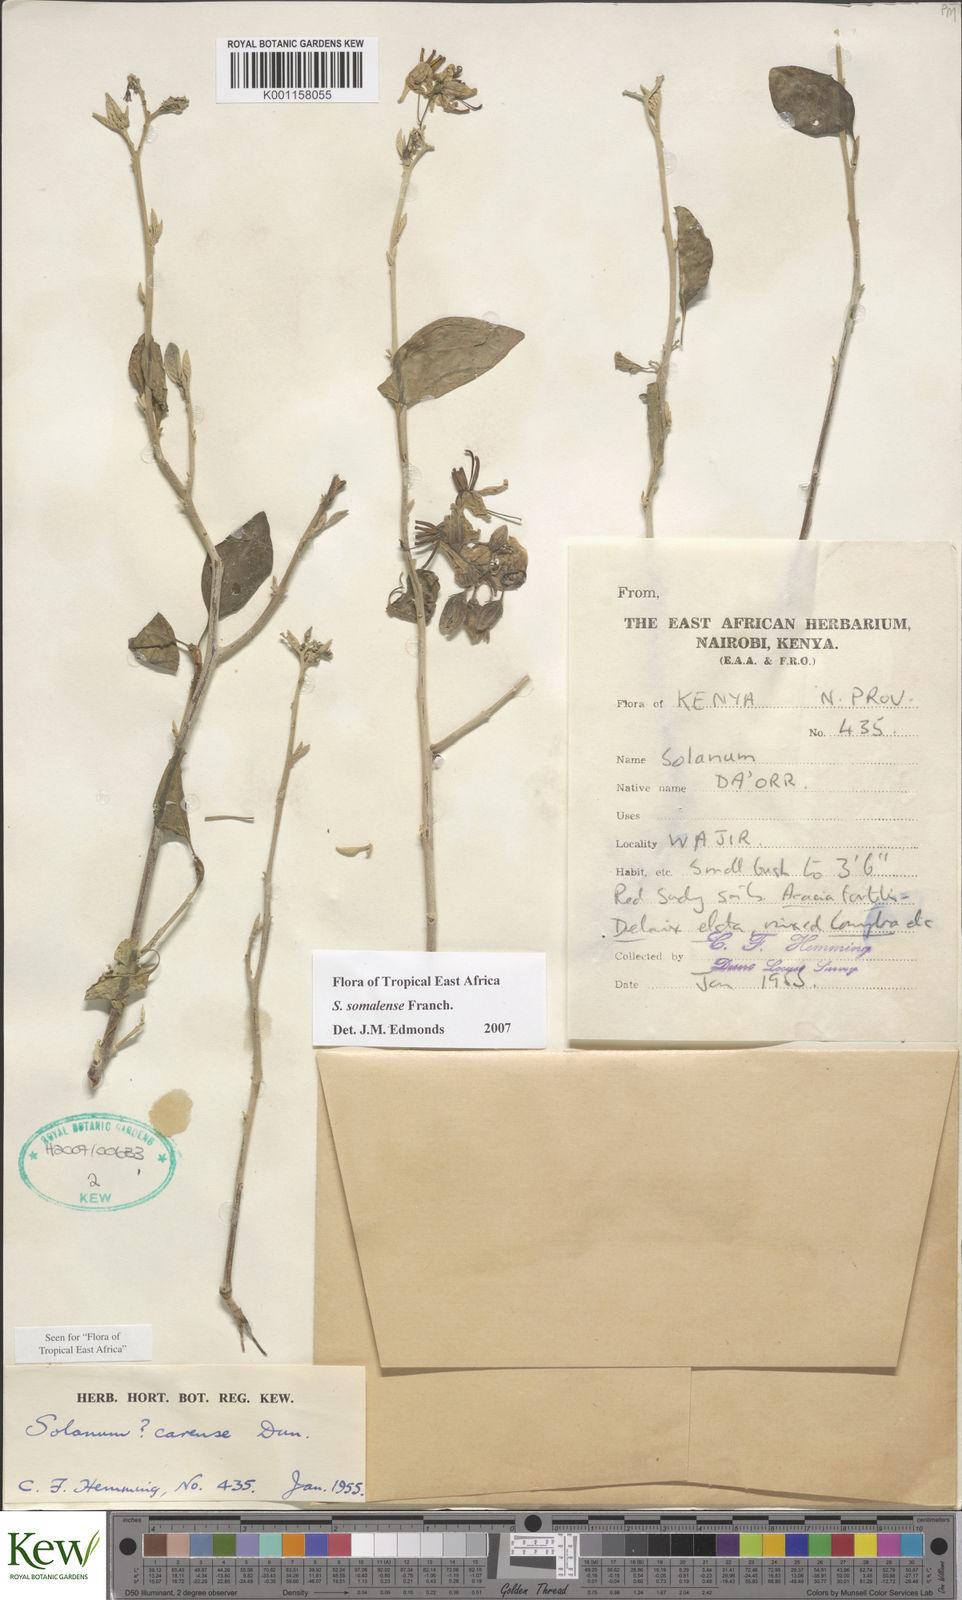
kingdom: Plantae
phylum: Tracheophyta
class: Magnoliopsida
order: Solanales
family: Solanaceae
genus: Solanum
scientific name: Solanum somalense
